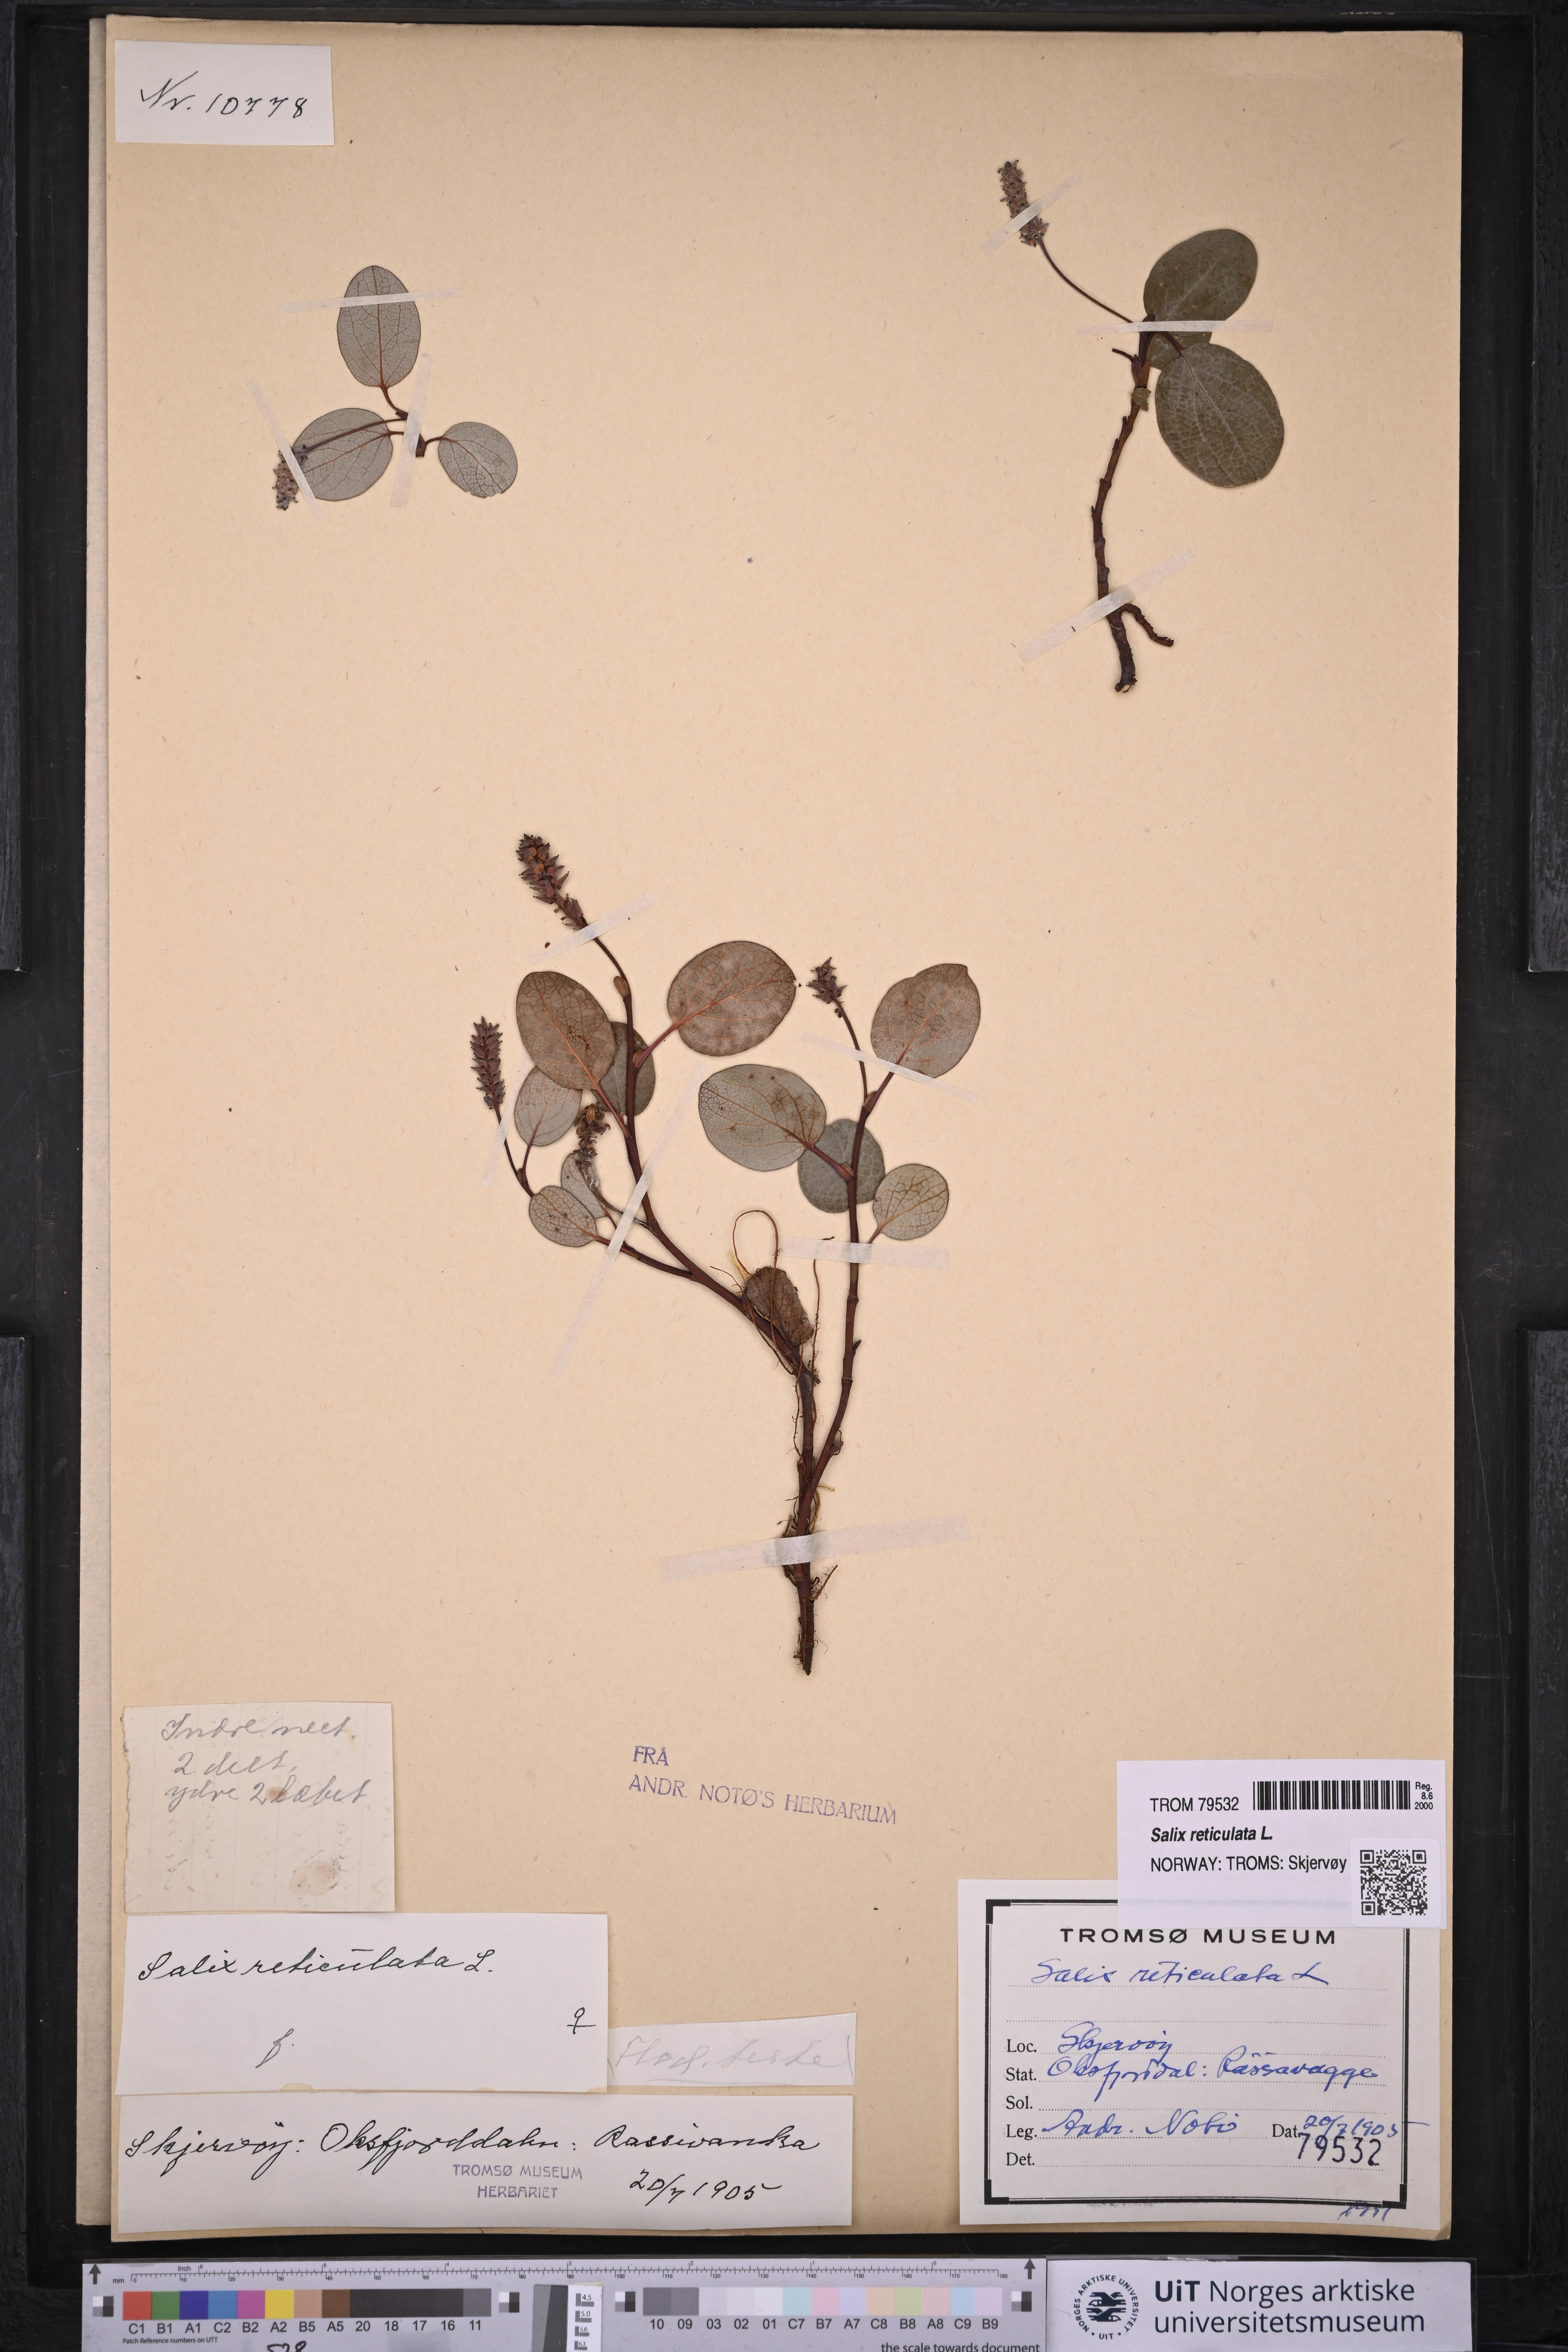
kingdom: Plantae
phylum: Tracheophyta
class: Magnoliopsida
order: Malpighiales
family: Salicaceae
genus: Salix
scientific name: Salix reticulata
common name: Net-leaved willow
